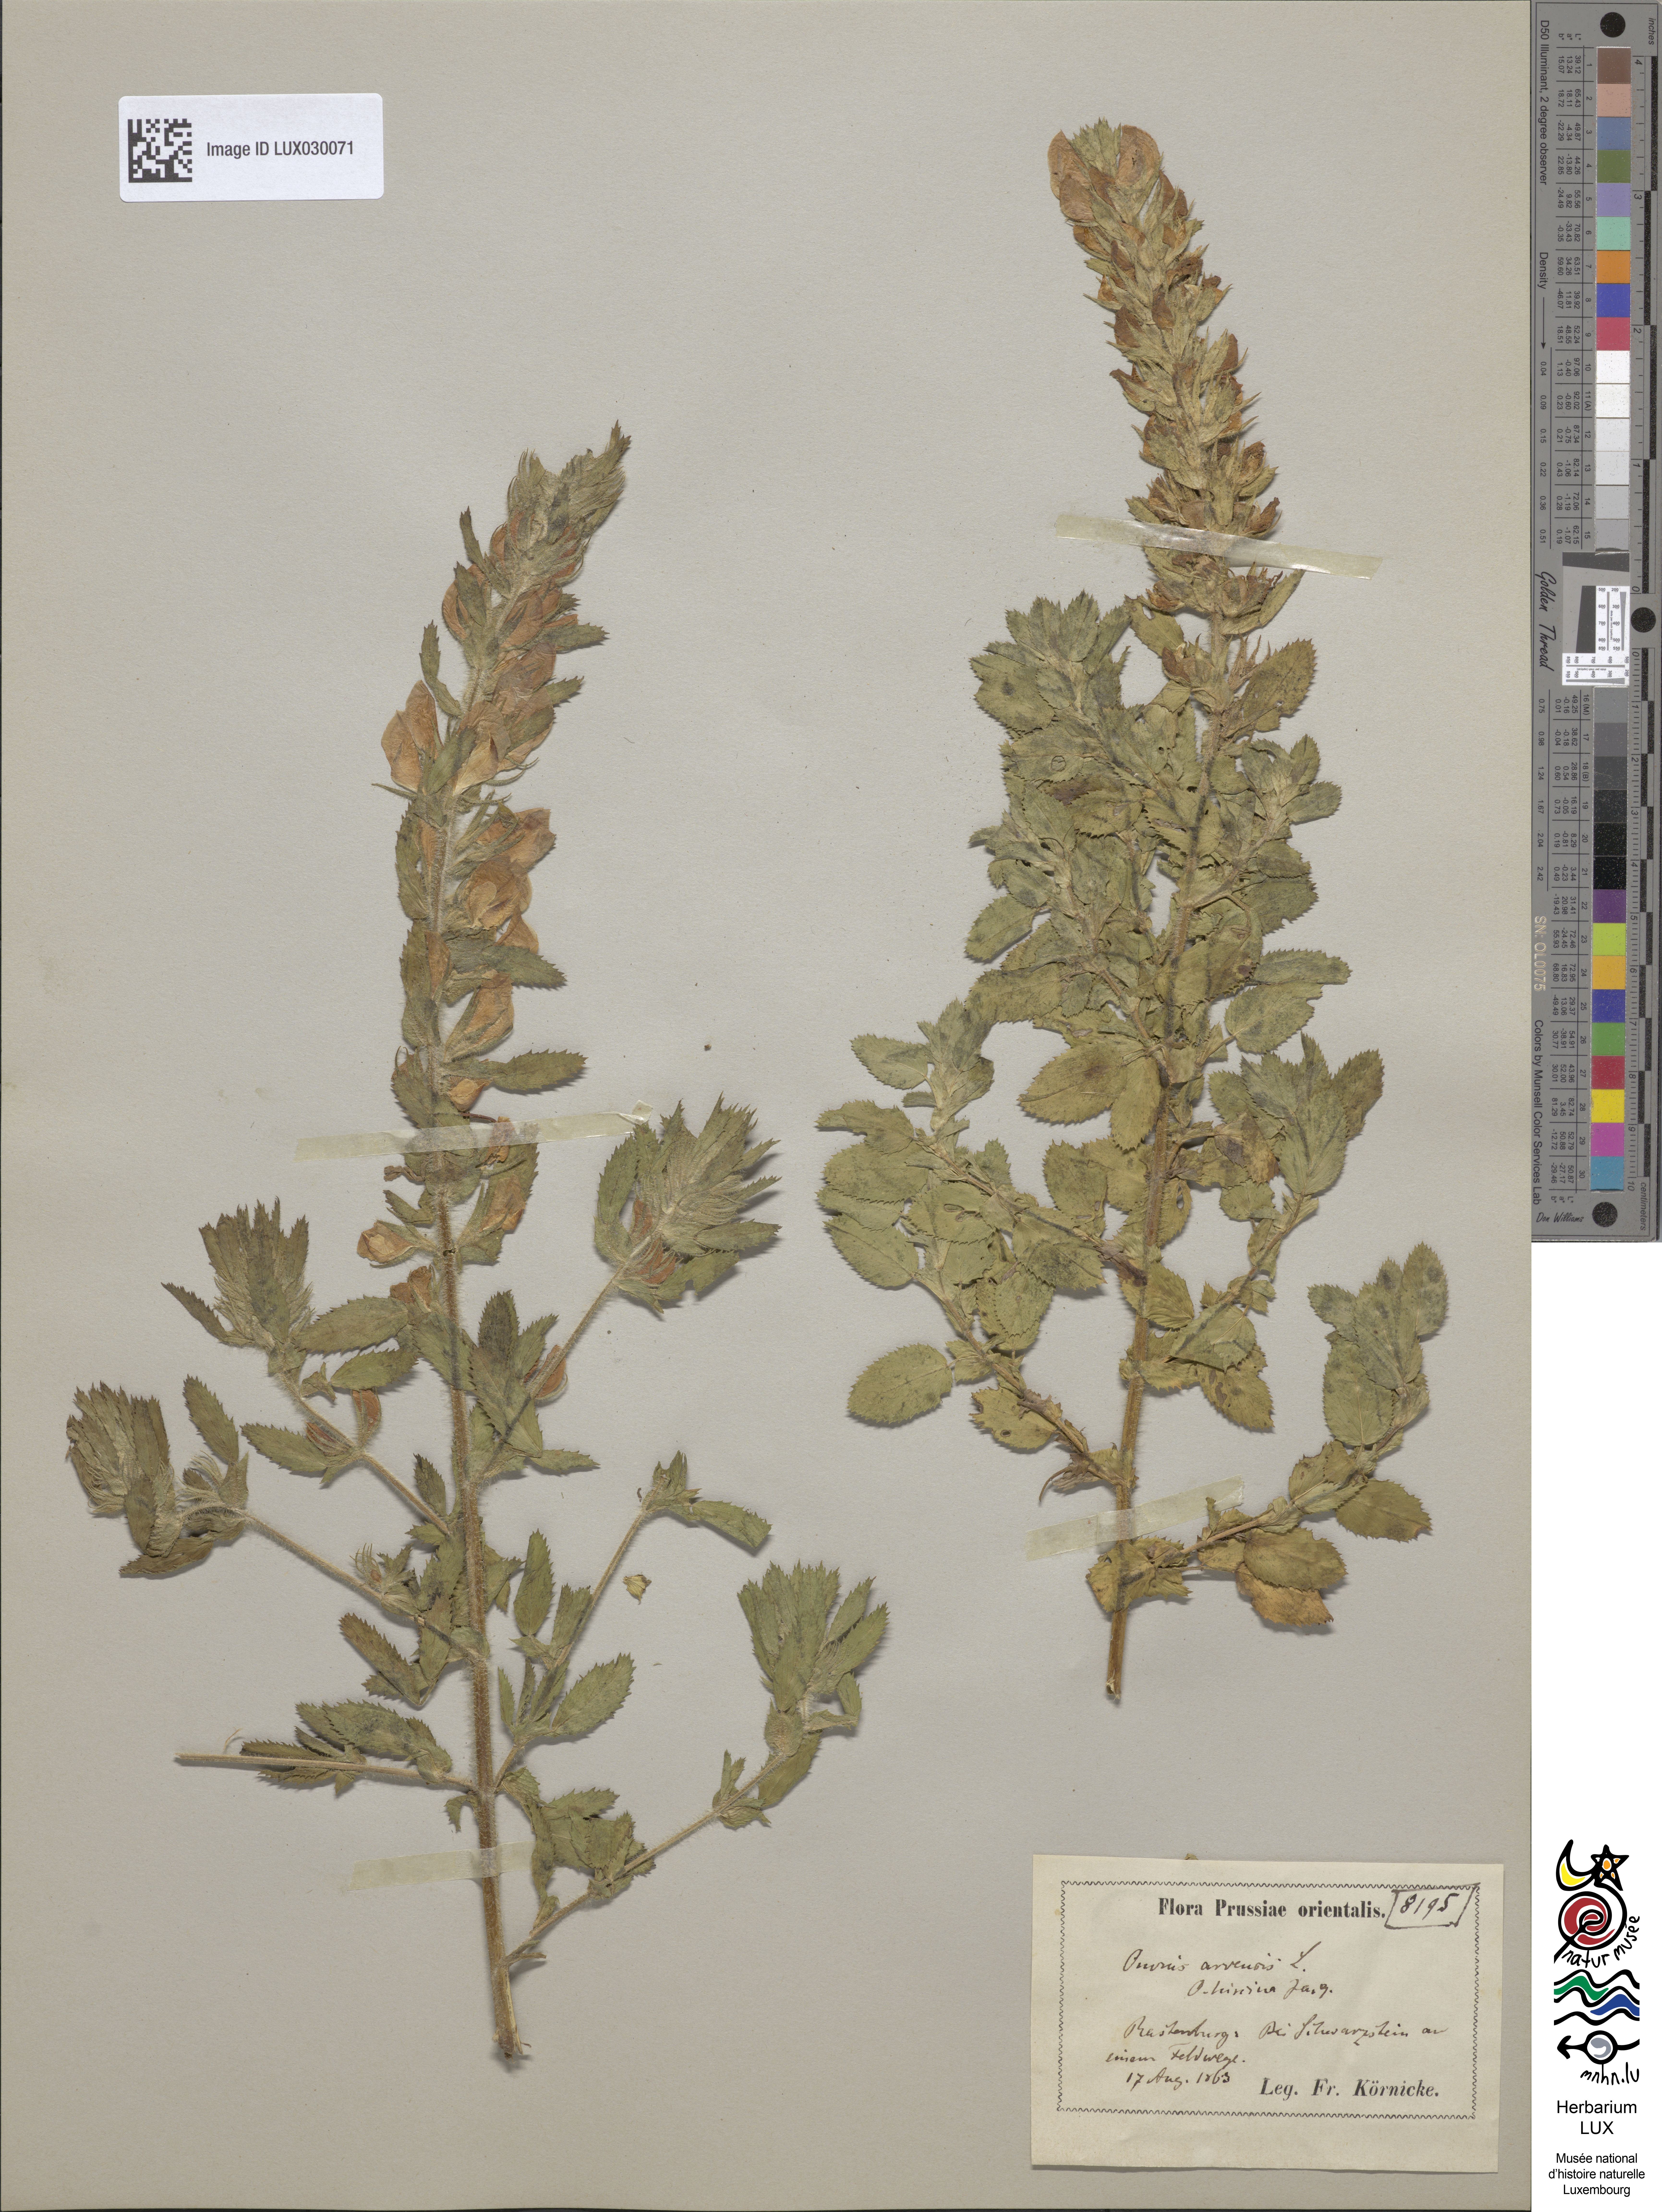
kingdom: Plantae
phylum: Tracheophyta
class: Magnoliopsida
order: Fabales
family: Fabaceae
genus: Ononis
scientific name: Ononis arvensis
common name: Field restharrow
